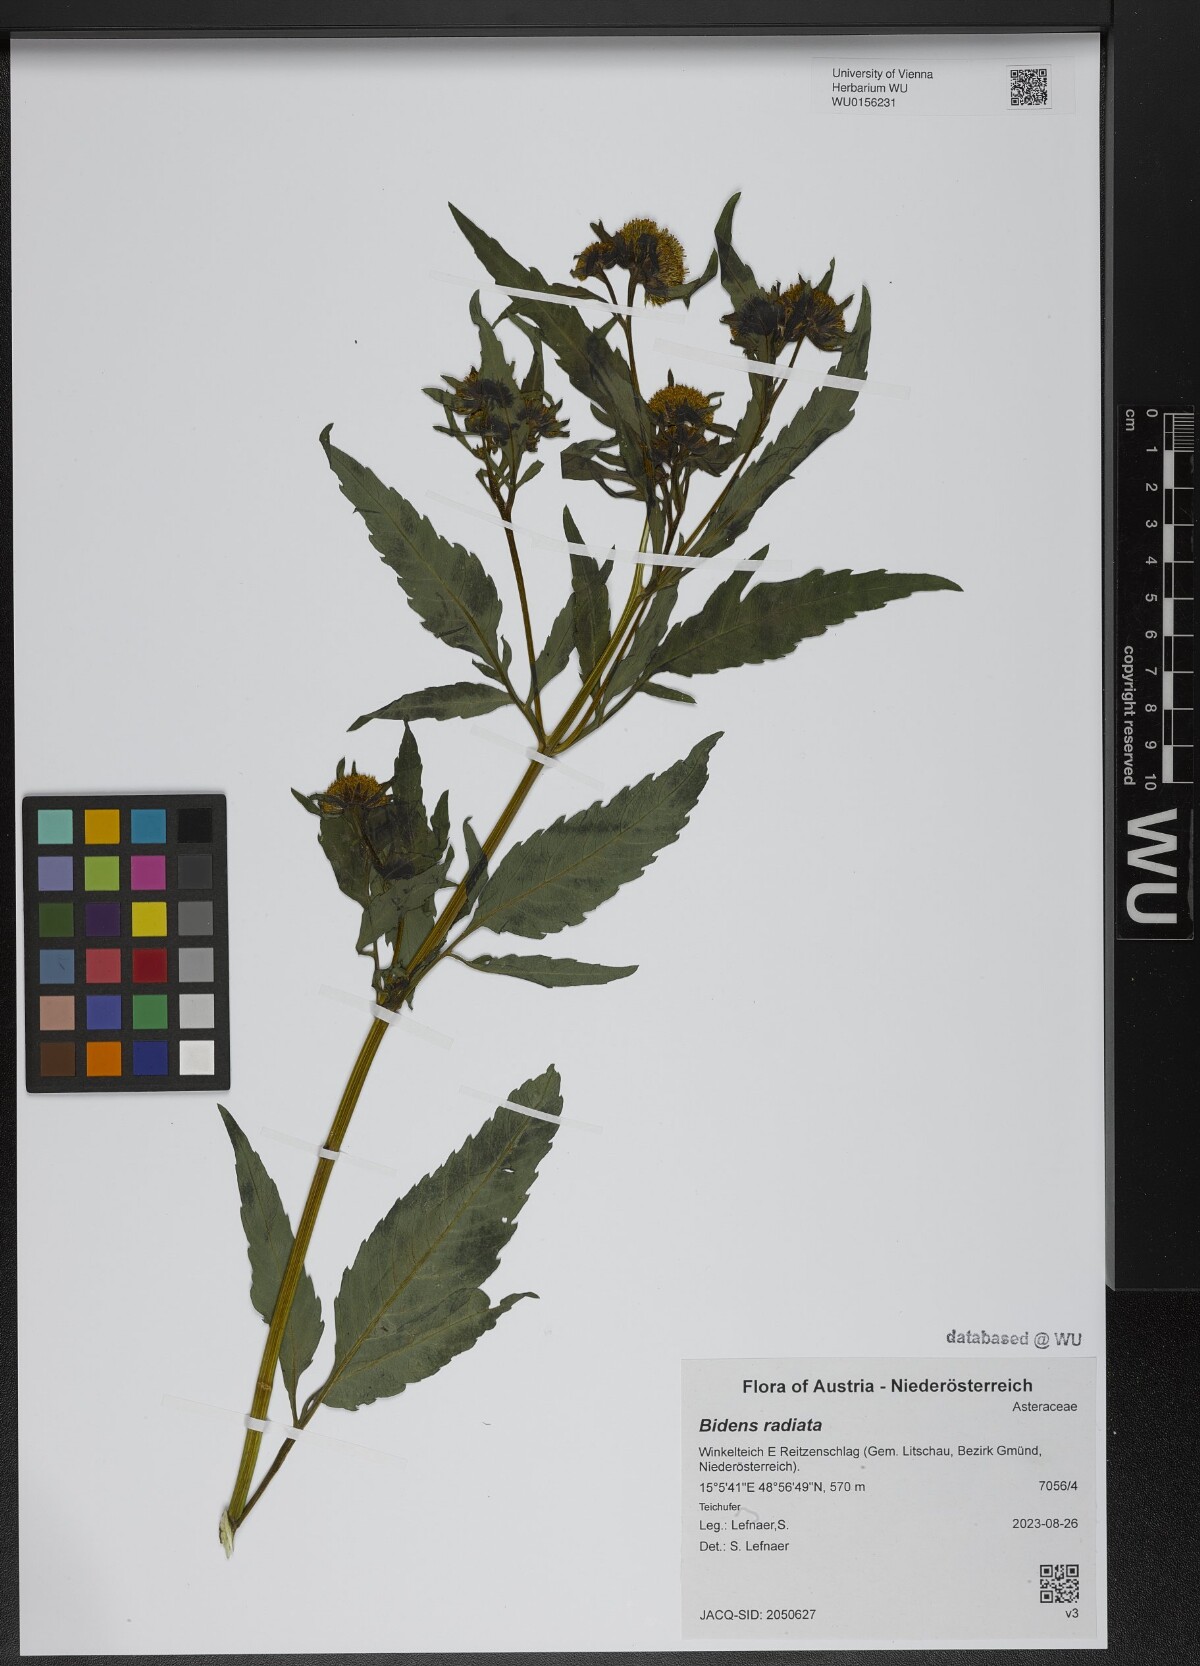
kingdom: Plantae
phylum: Tracheophyta
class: Magnoliopsida
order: Asterales
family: Asteraceae
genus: Bidens
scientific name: Bidens radiata
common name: Radiating bur-marigold
